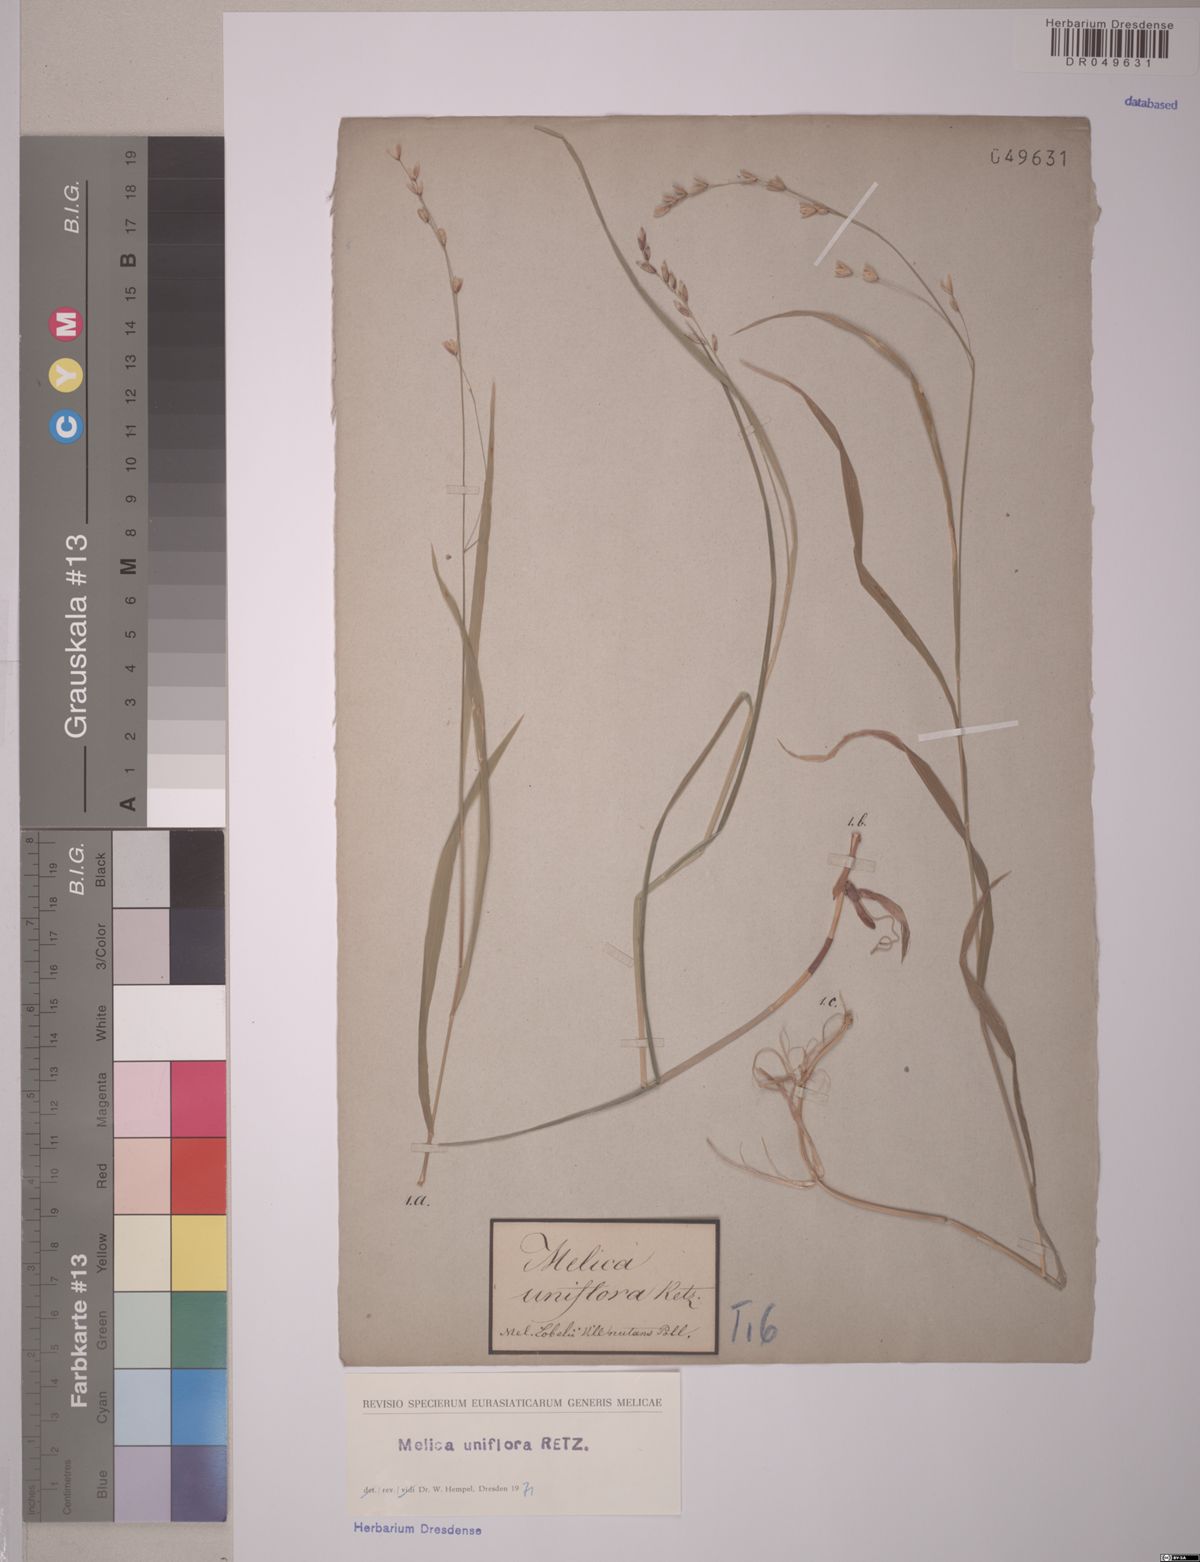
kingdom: Plantae
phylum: Tracheophyta
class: Liliopsida
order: Poales
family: Poaceae
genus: Melica
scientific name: Melica uniflora
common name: Wood melick
